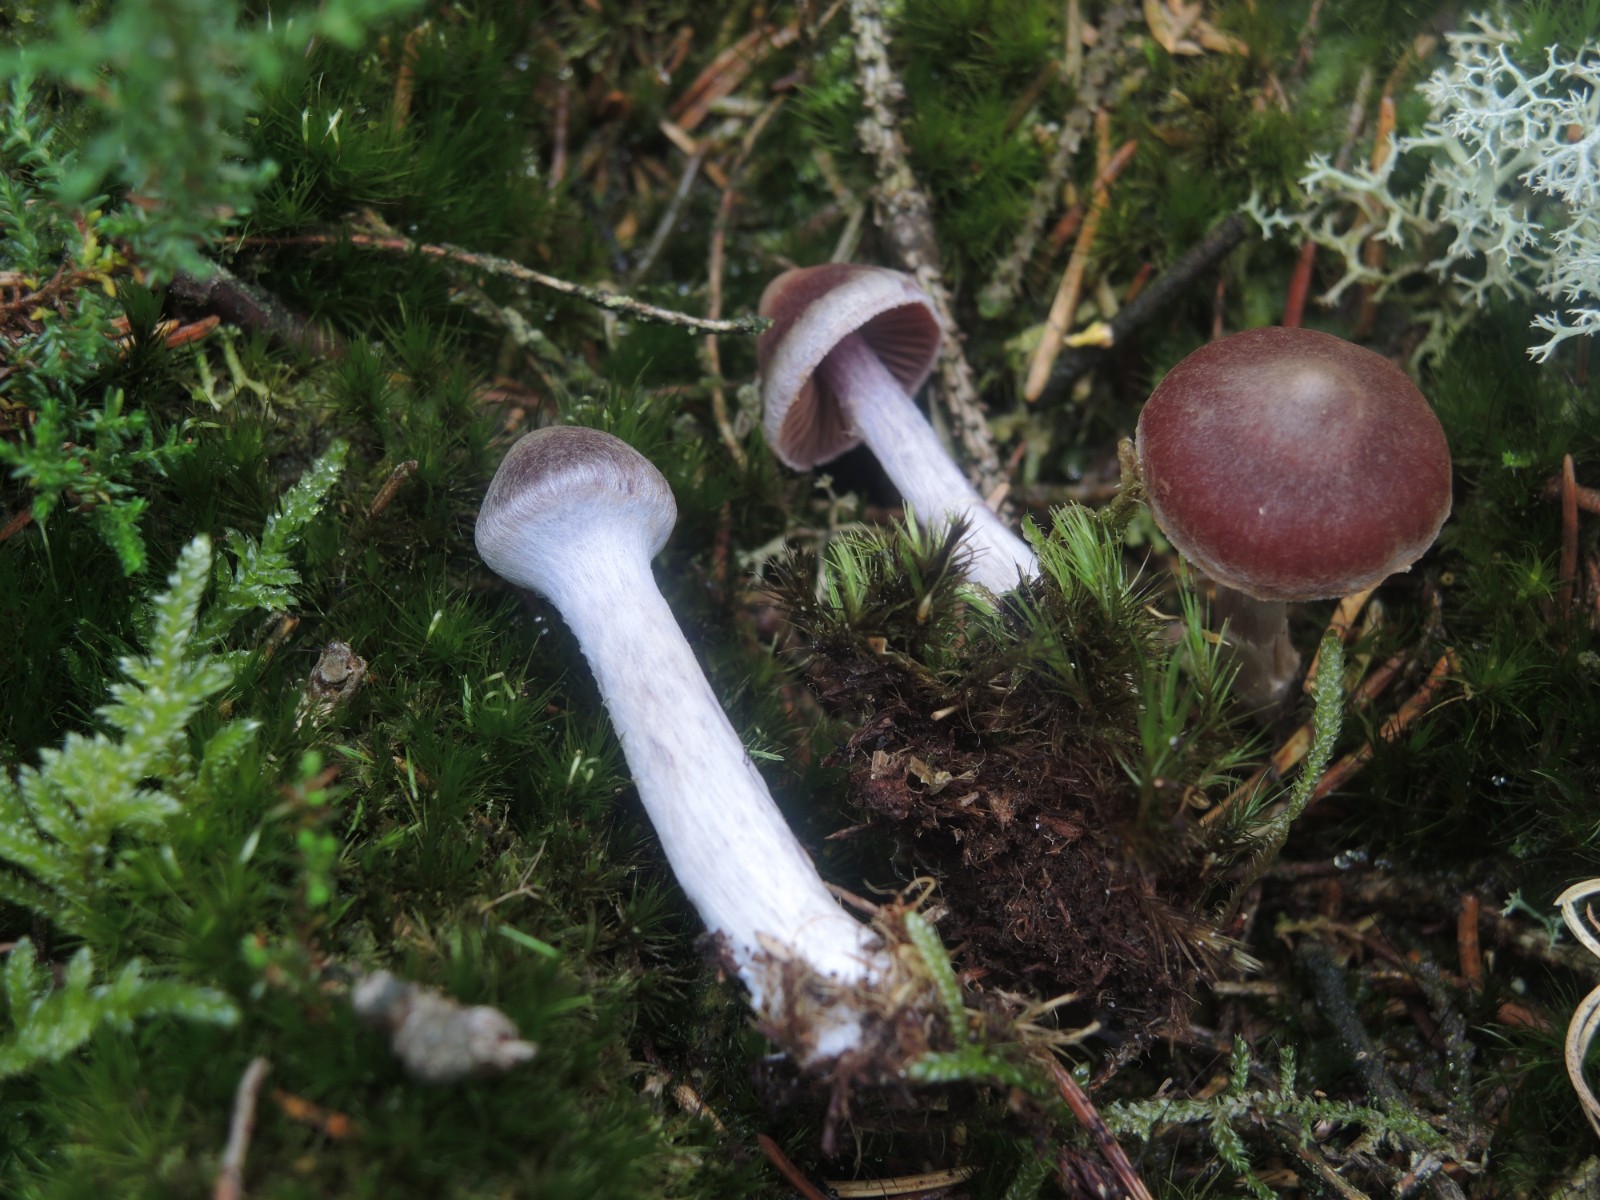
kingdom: Fungi
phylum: Basidiomycota
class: Agaricomycetes
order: Agaricales
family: Cortinariaceae
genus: Cortinarius
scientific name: Cortinarius
